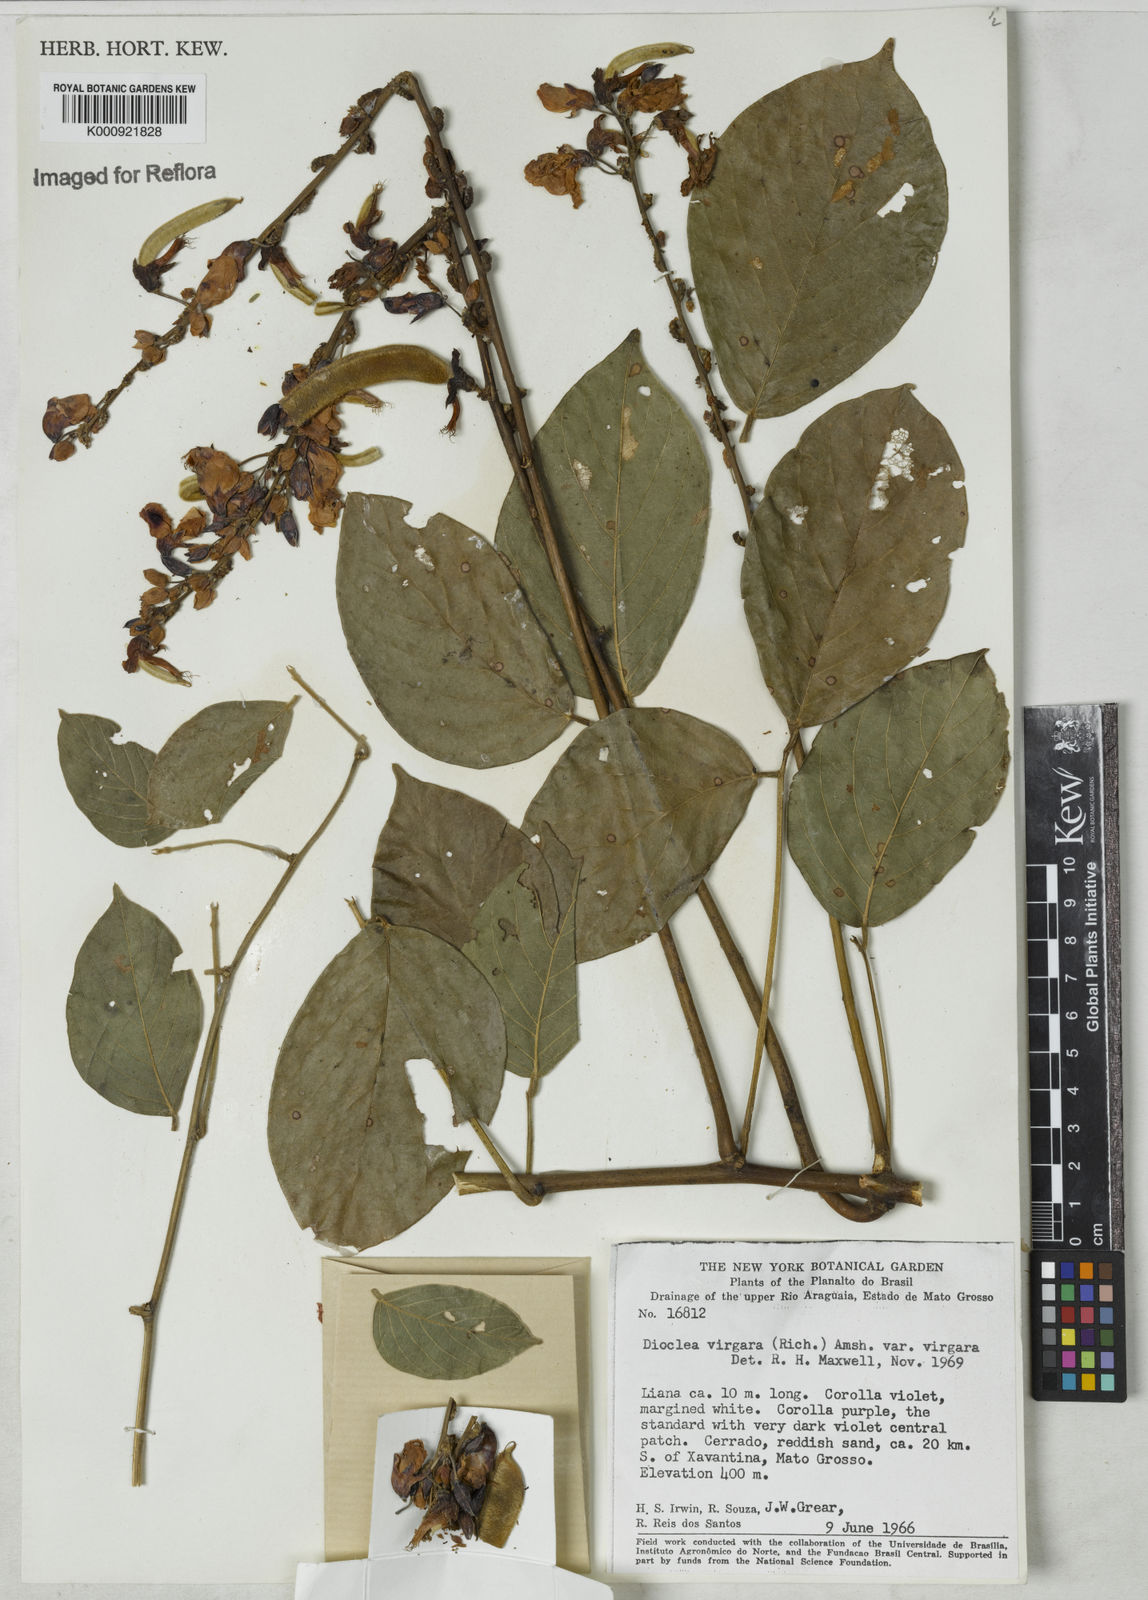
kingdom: Plantae
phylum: Tracheophyta
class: Magnoliopsida
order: Fabales
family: Fabaceae
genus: Dioclea
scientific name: Dioclea virgata
